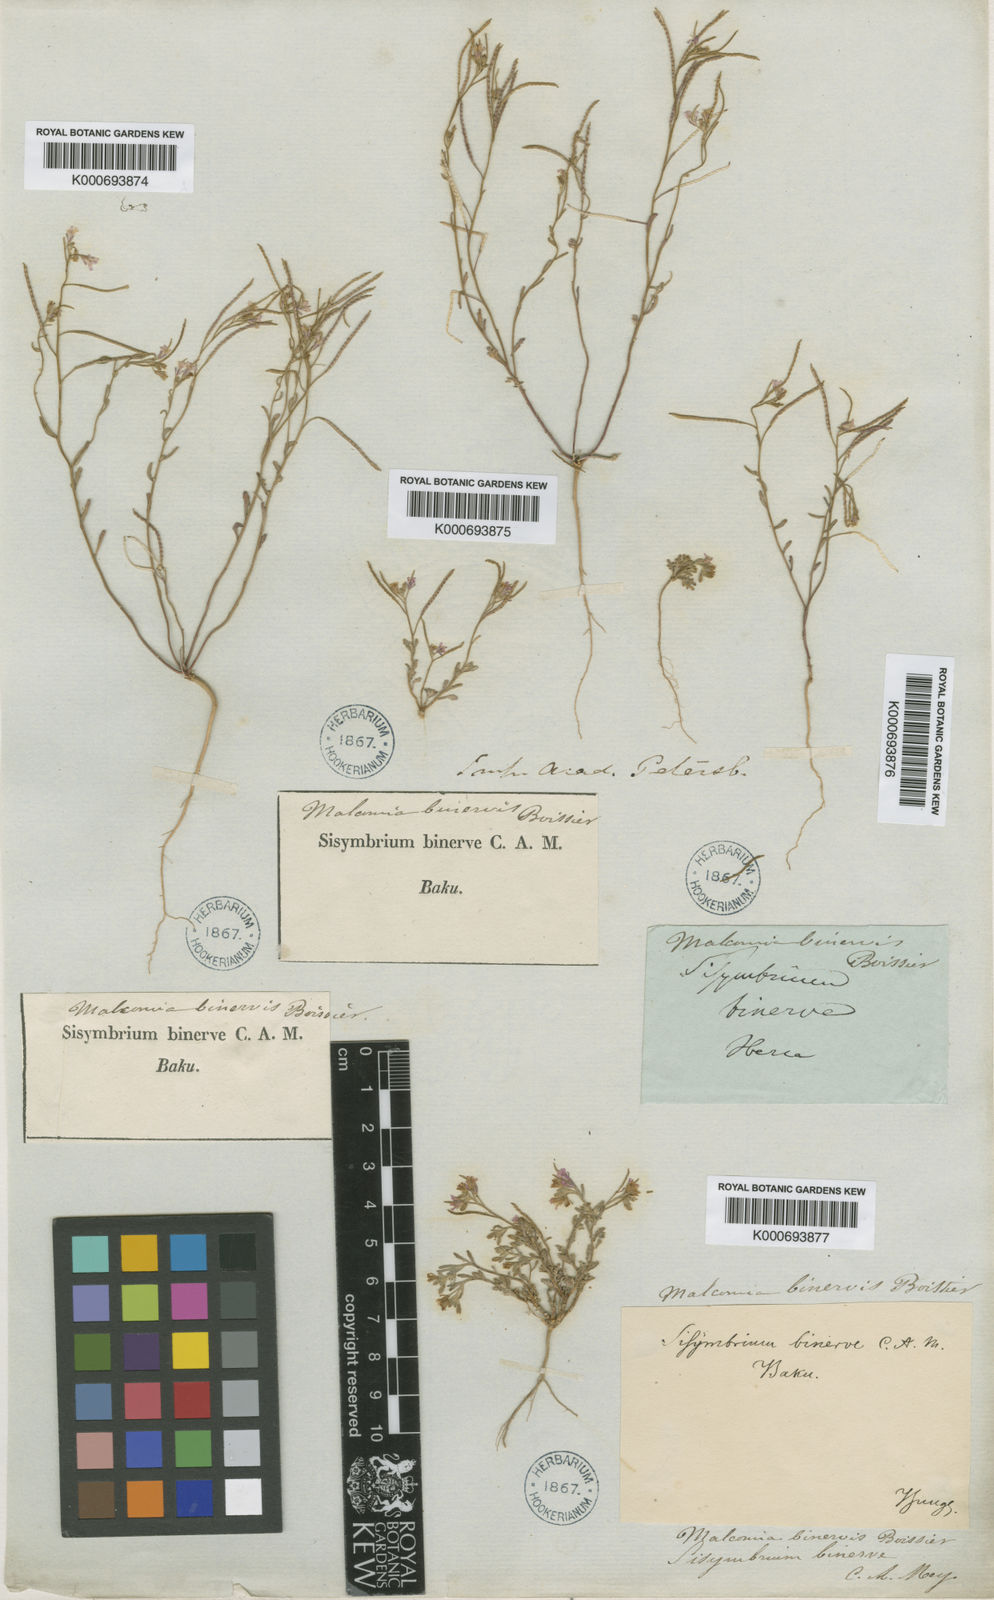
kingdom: Plantae
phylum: Tracheophyta
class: Magnoliopsida
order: Brassicales
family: Brassicaceae
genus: Maresia
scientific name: Maresia nana
